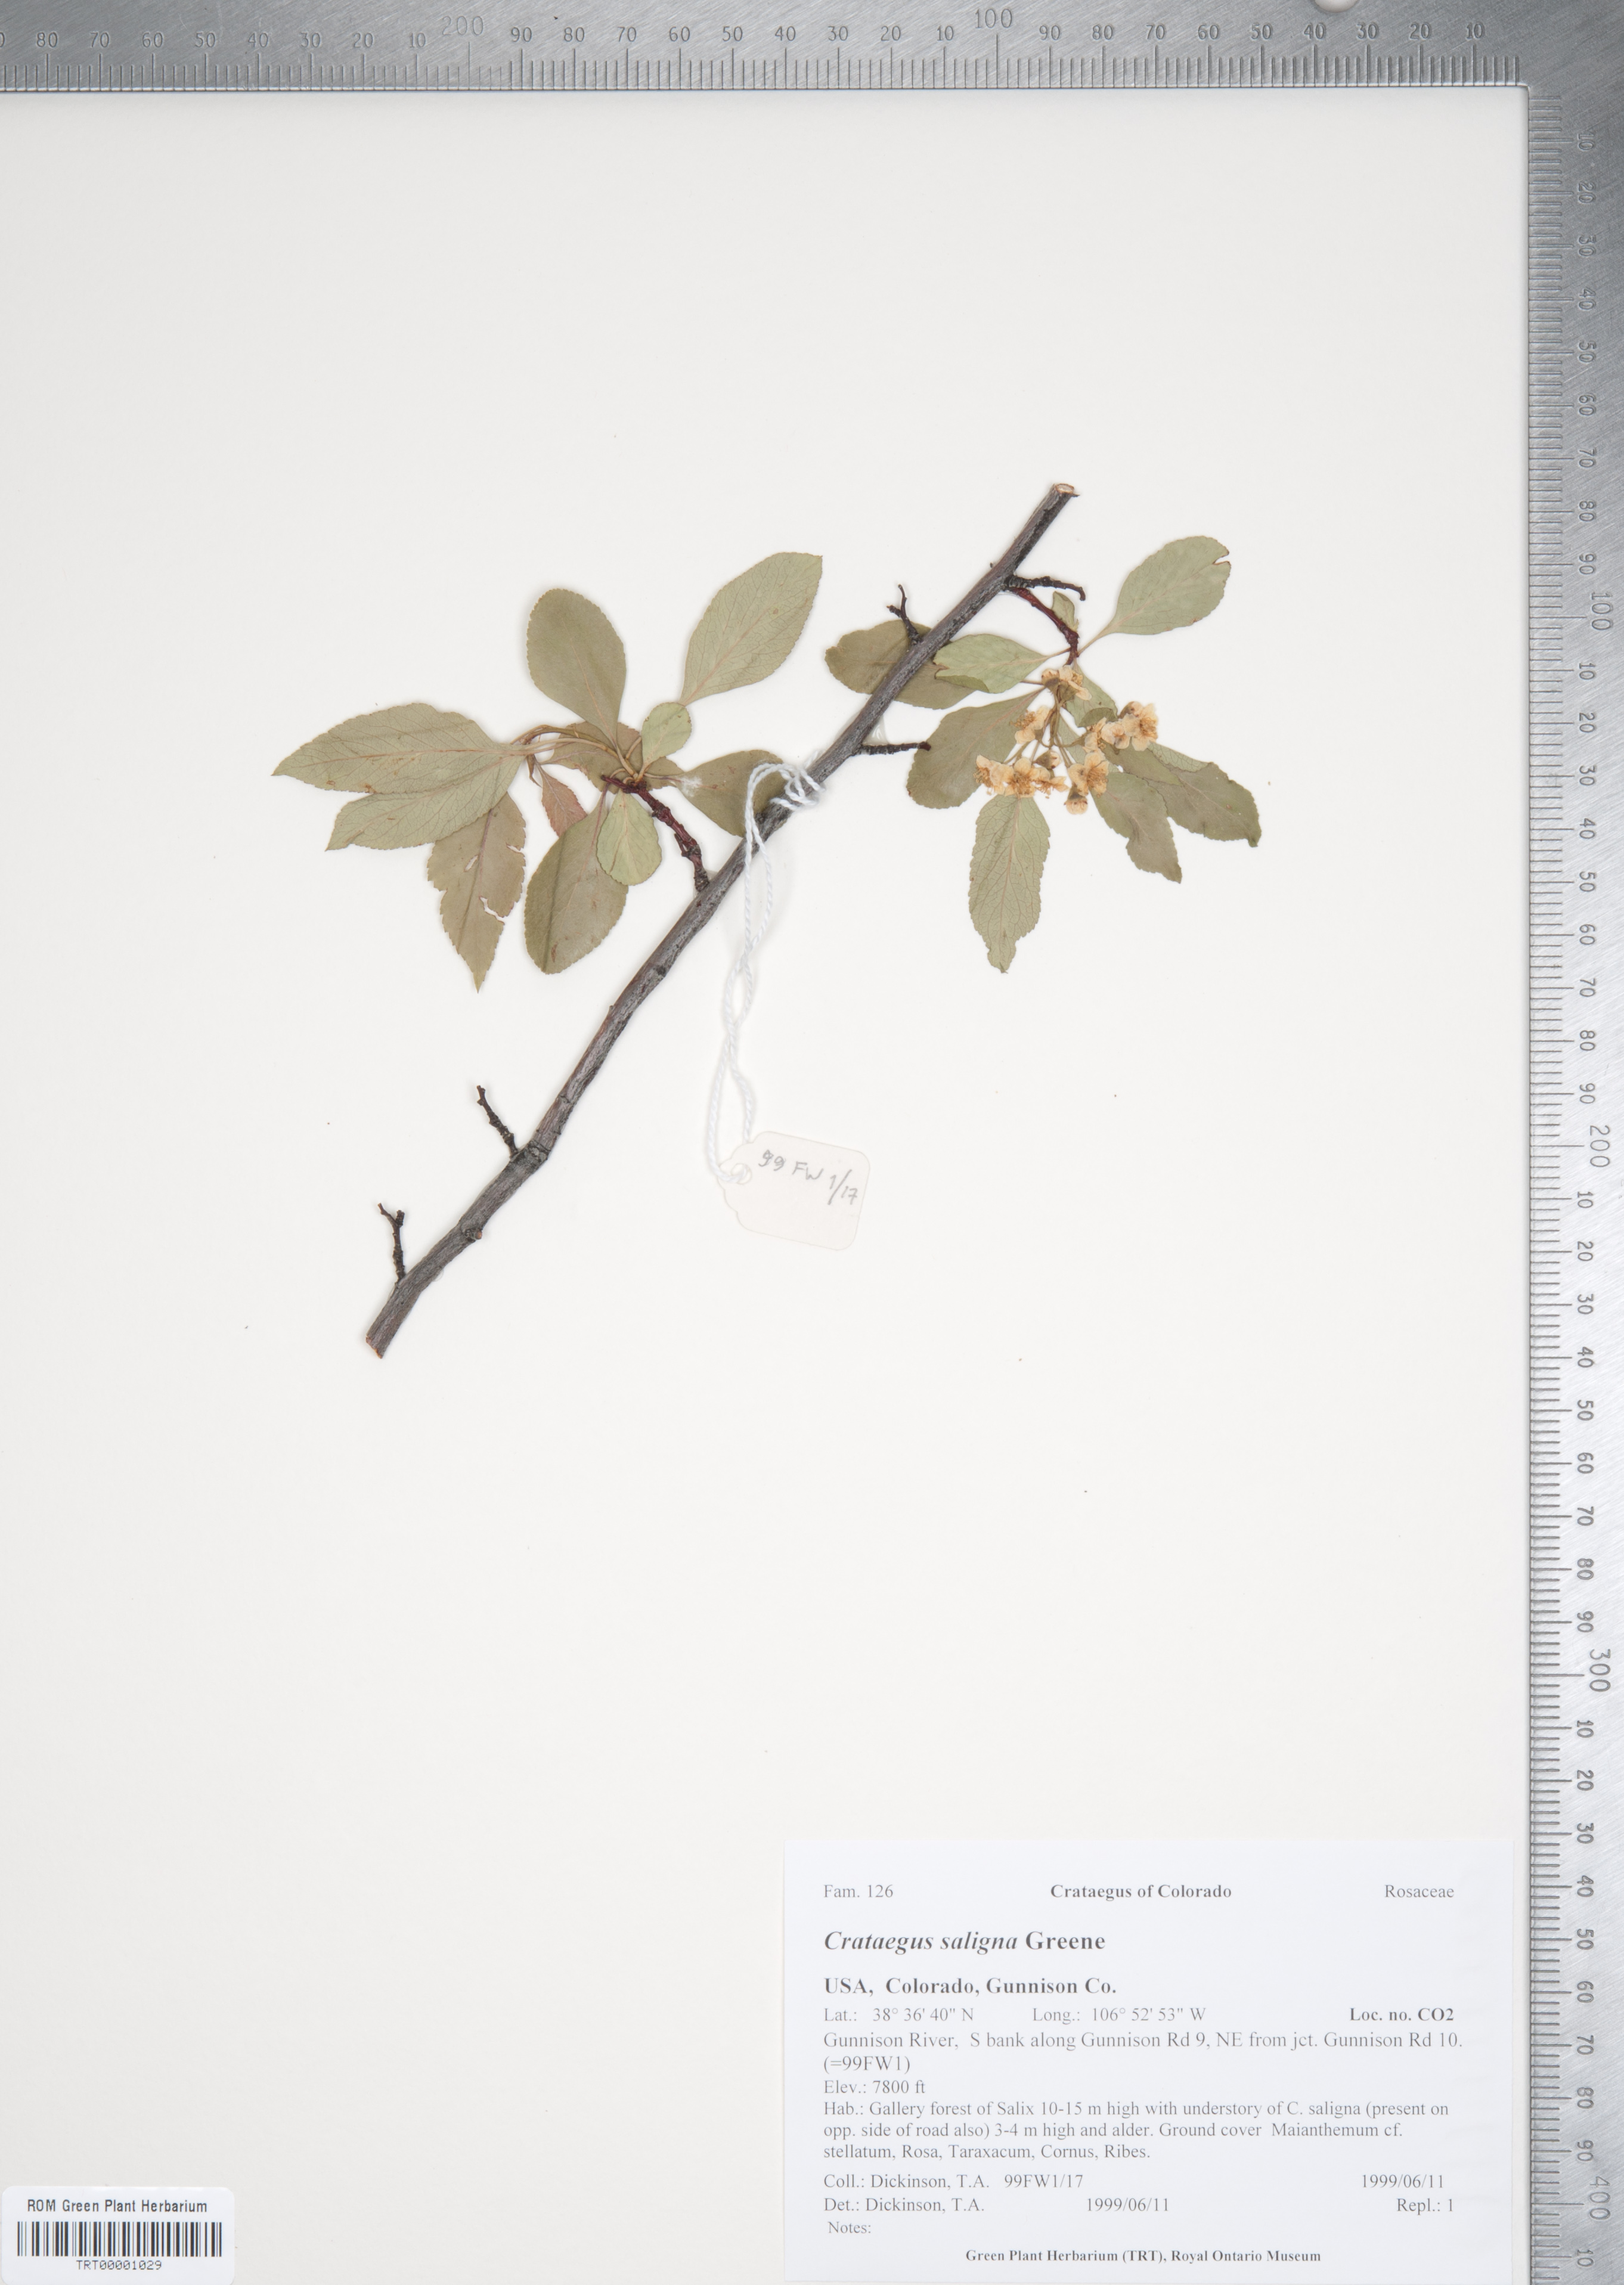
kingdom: Plantae
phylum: Tracheophyta
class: Magnoliopsida
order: Rosales
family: Rosaceae
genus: Crataegus
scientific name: Crataegus saligna
